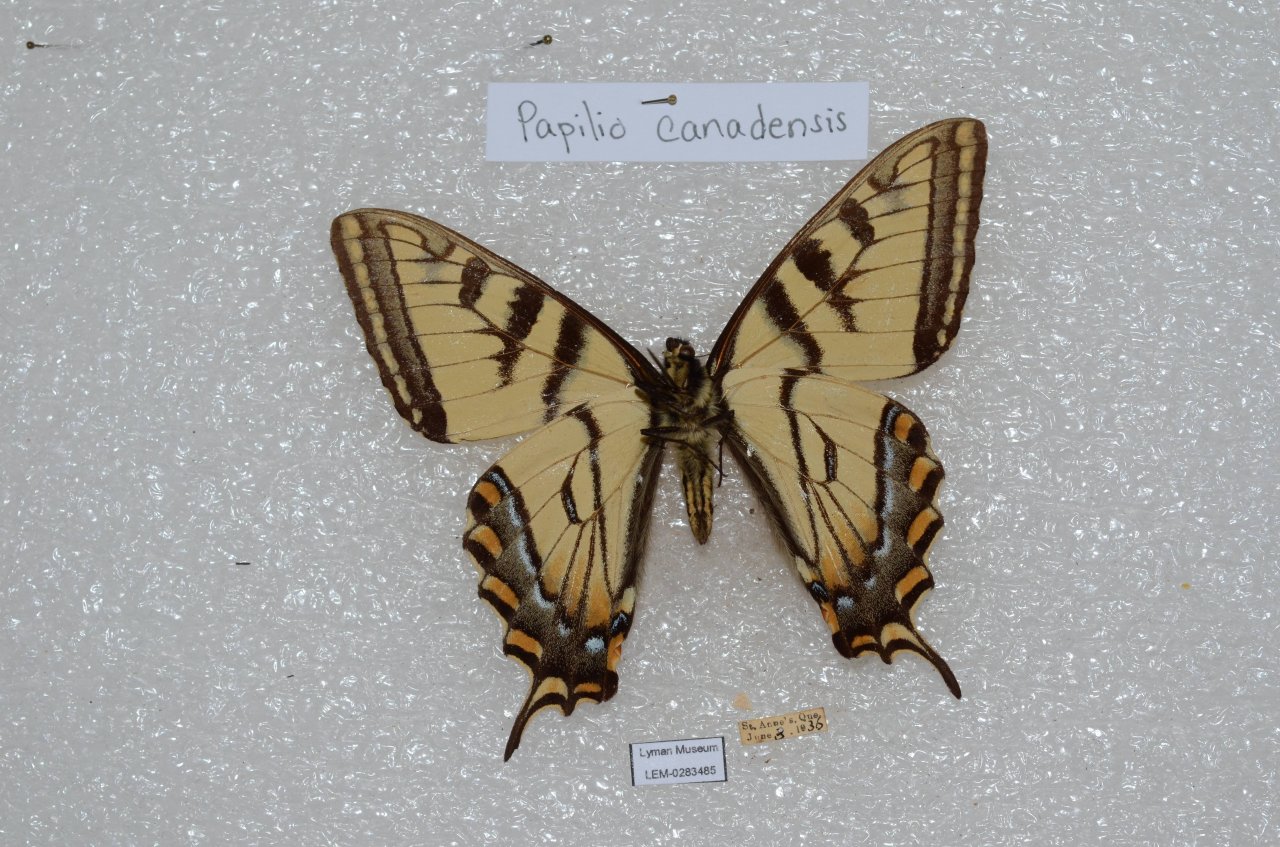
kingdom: Animalia
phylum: Arthropoda
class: Insecta
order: Lepidoptera
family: Papilionidae
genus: Pterourus
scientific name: Pterourus canadensis
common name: Canadian Tiger Swallowtail
